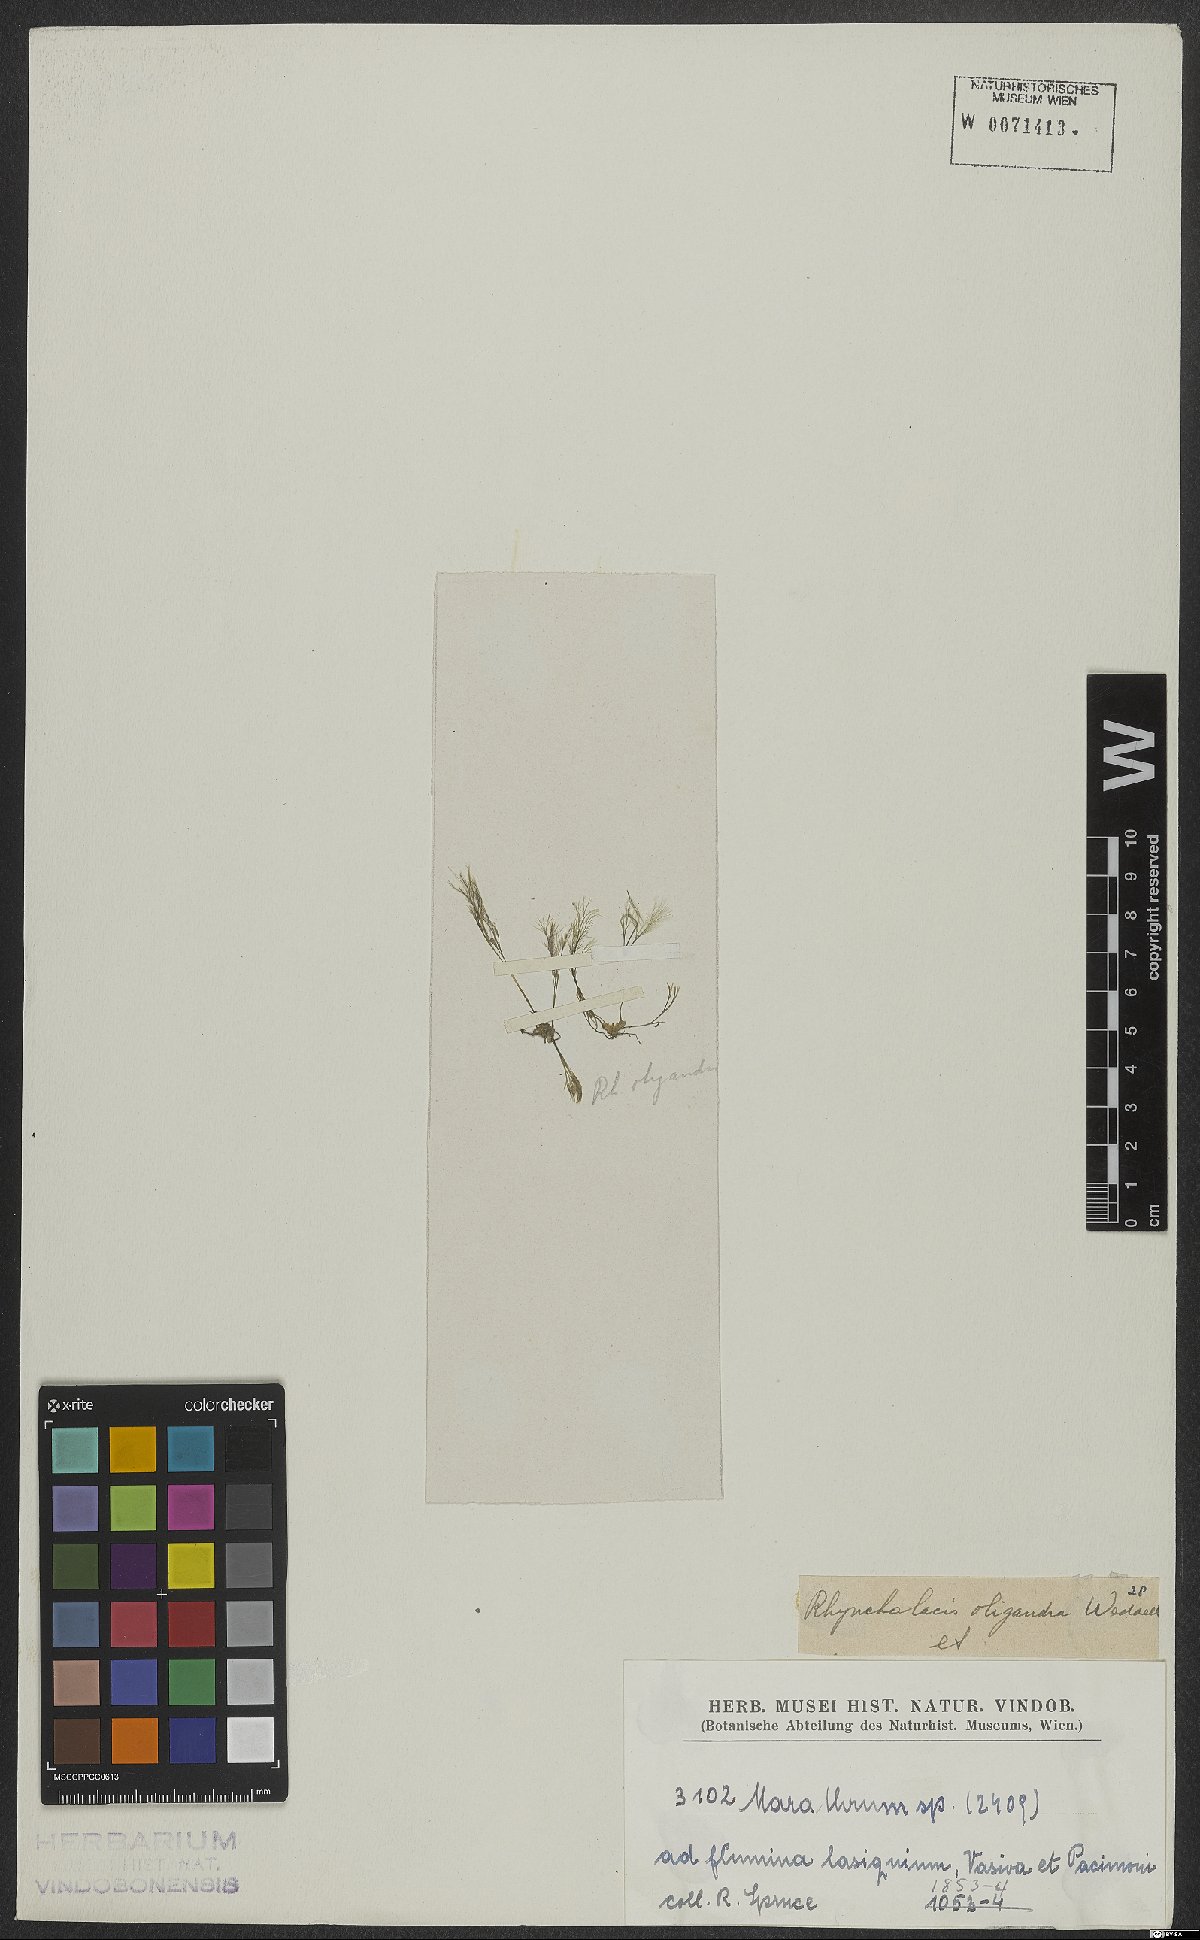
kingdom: Plantae
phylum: Tracheophyta
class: Magnoliopsida
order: Malpighiales
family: Podostemaceae
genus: Rhyncholacis
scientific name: Rhyncholacis oligandra
